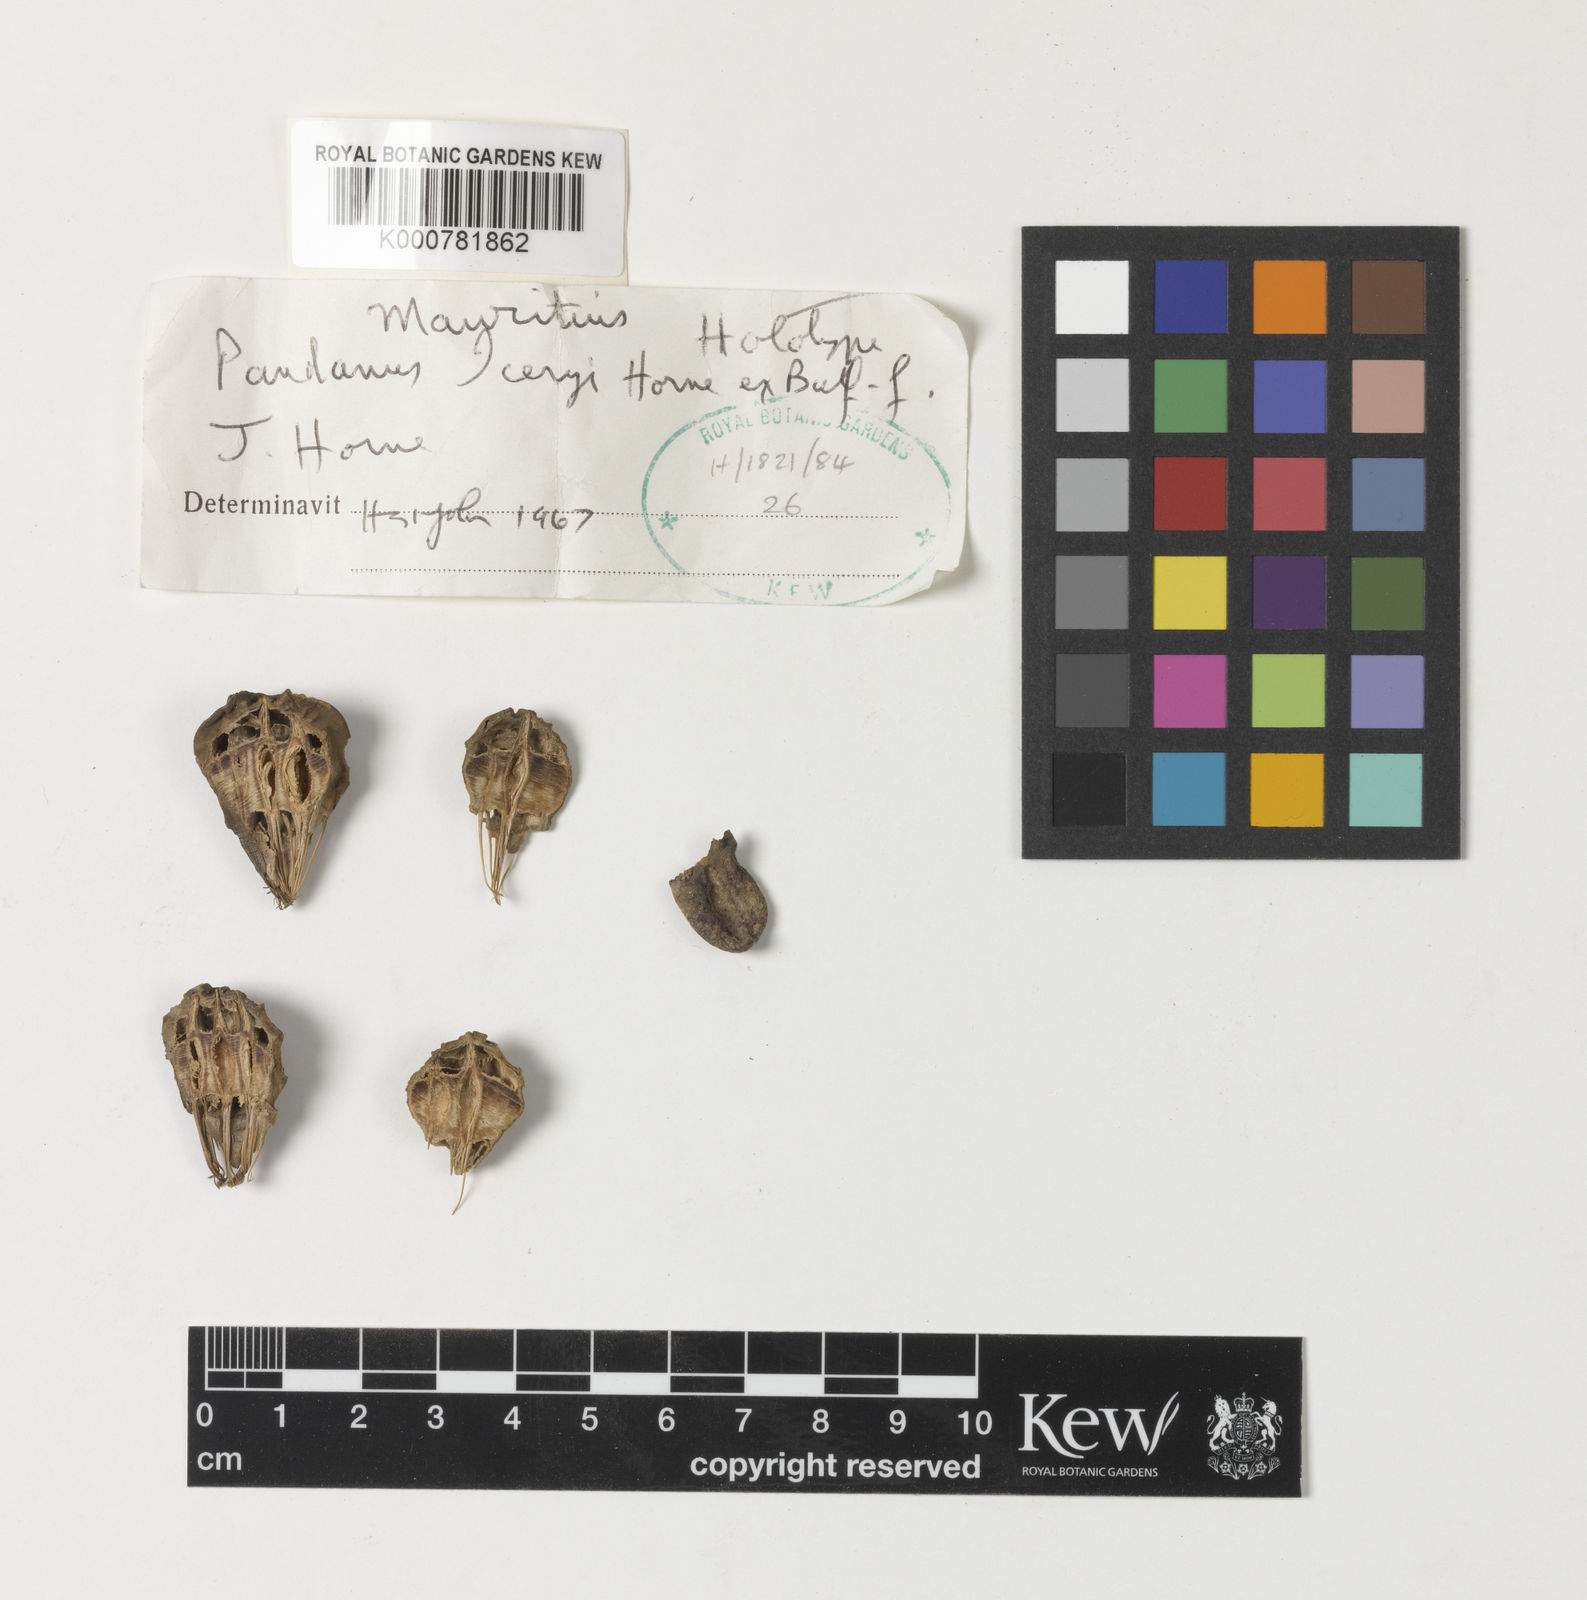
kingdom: Plantae
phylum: Tracheophyta
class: Liliopsida
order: Pandanales
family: Pandanaceae
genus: Pandanus
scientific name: Pandanus iceryi
